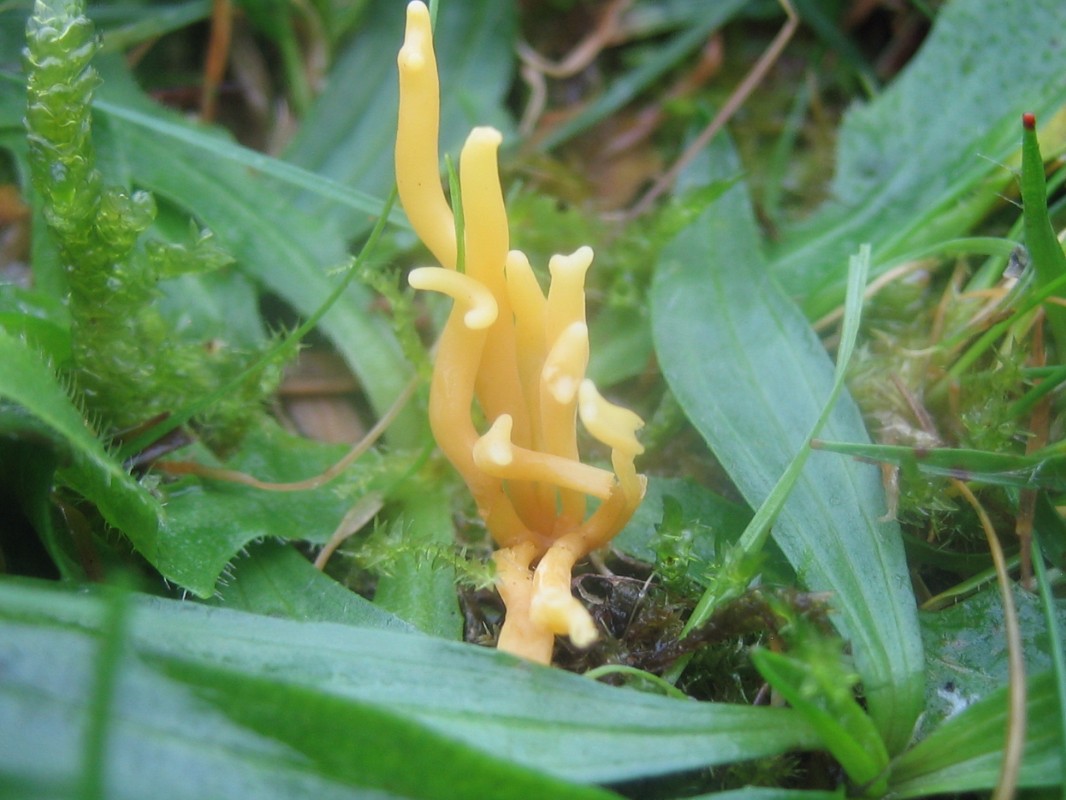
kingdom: Fungi
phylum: Basidiomycota
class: Agaricomycetes
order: Agaricales
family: Clavariaceae
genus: Clavulinopsis
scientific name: Clavulinopsis corniculata
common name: eng-køllesvamp
